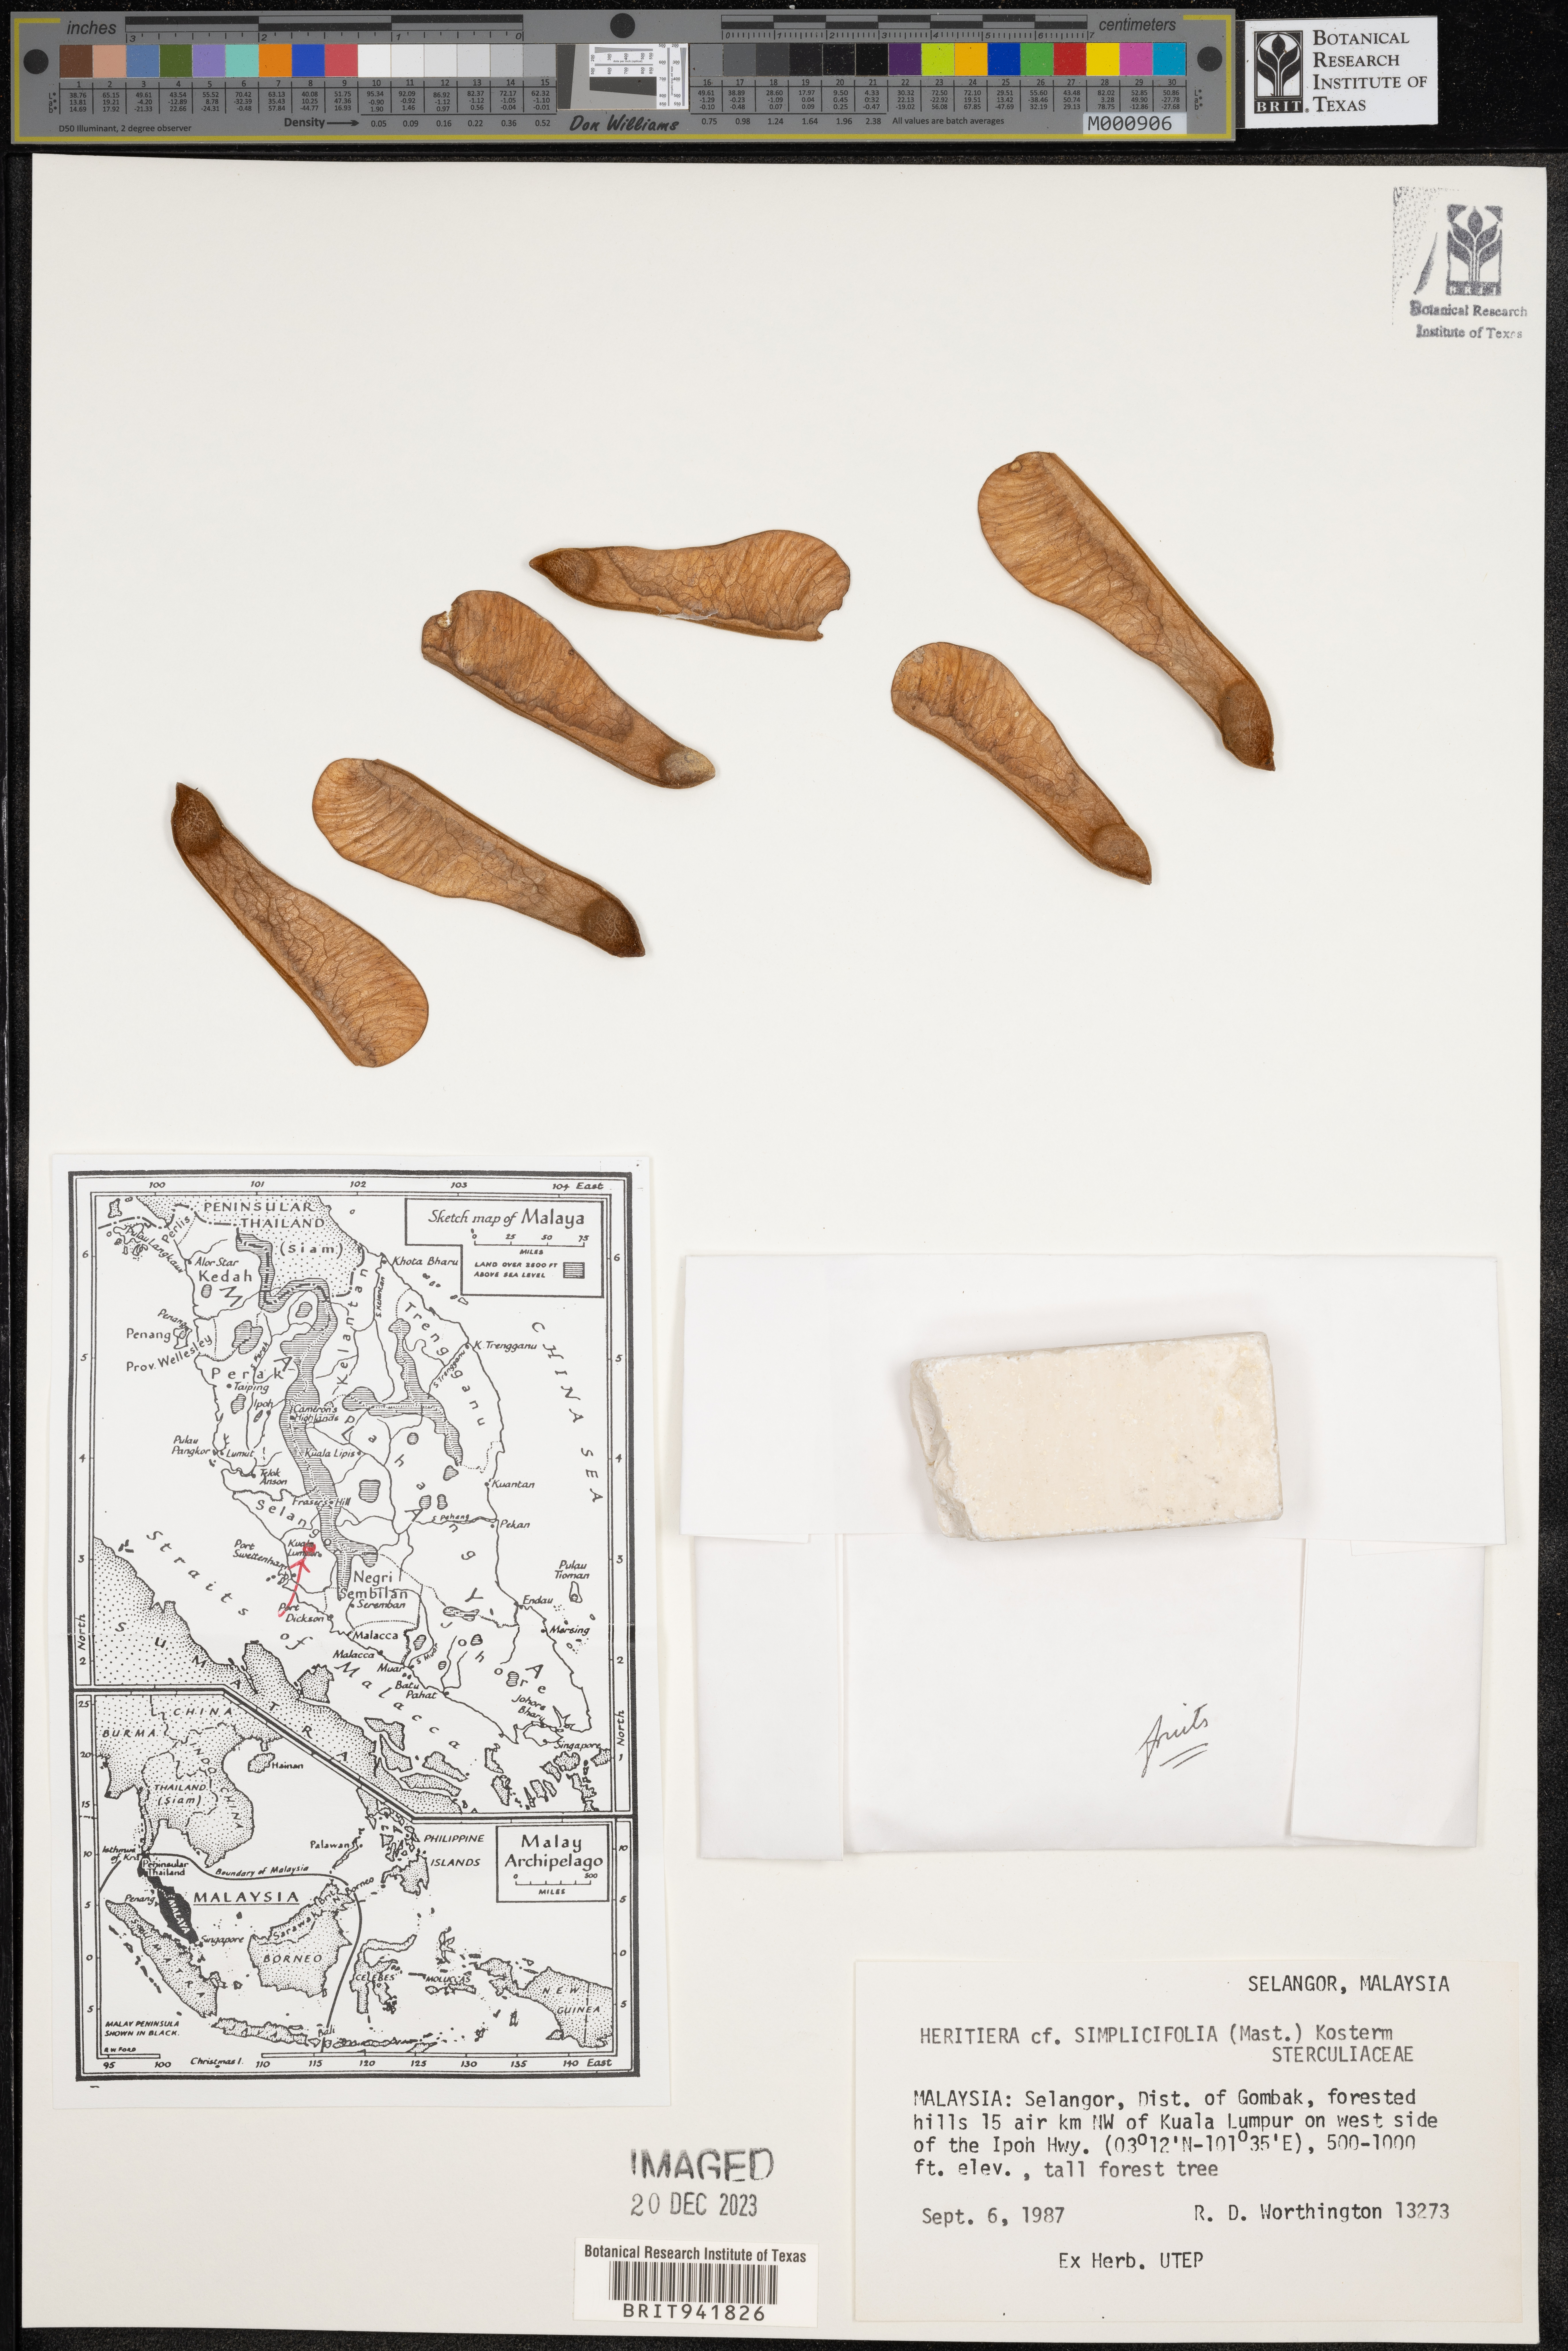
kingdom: Plantae
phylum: Tracheophyta
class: Magnoliopsida
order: Malvales
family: Malvaceae
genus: Heritiera
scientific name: Heritiera
